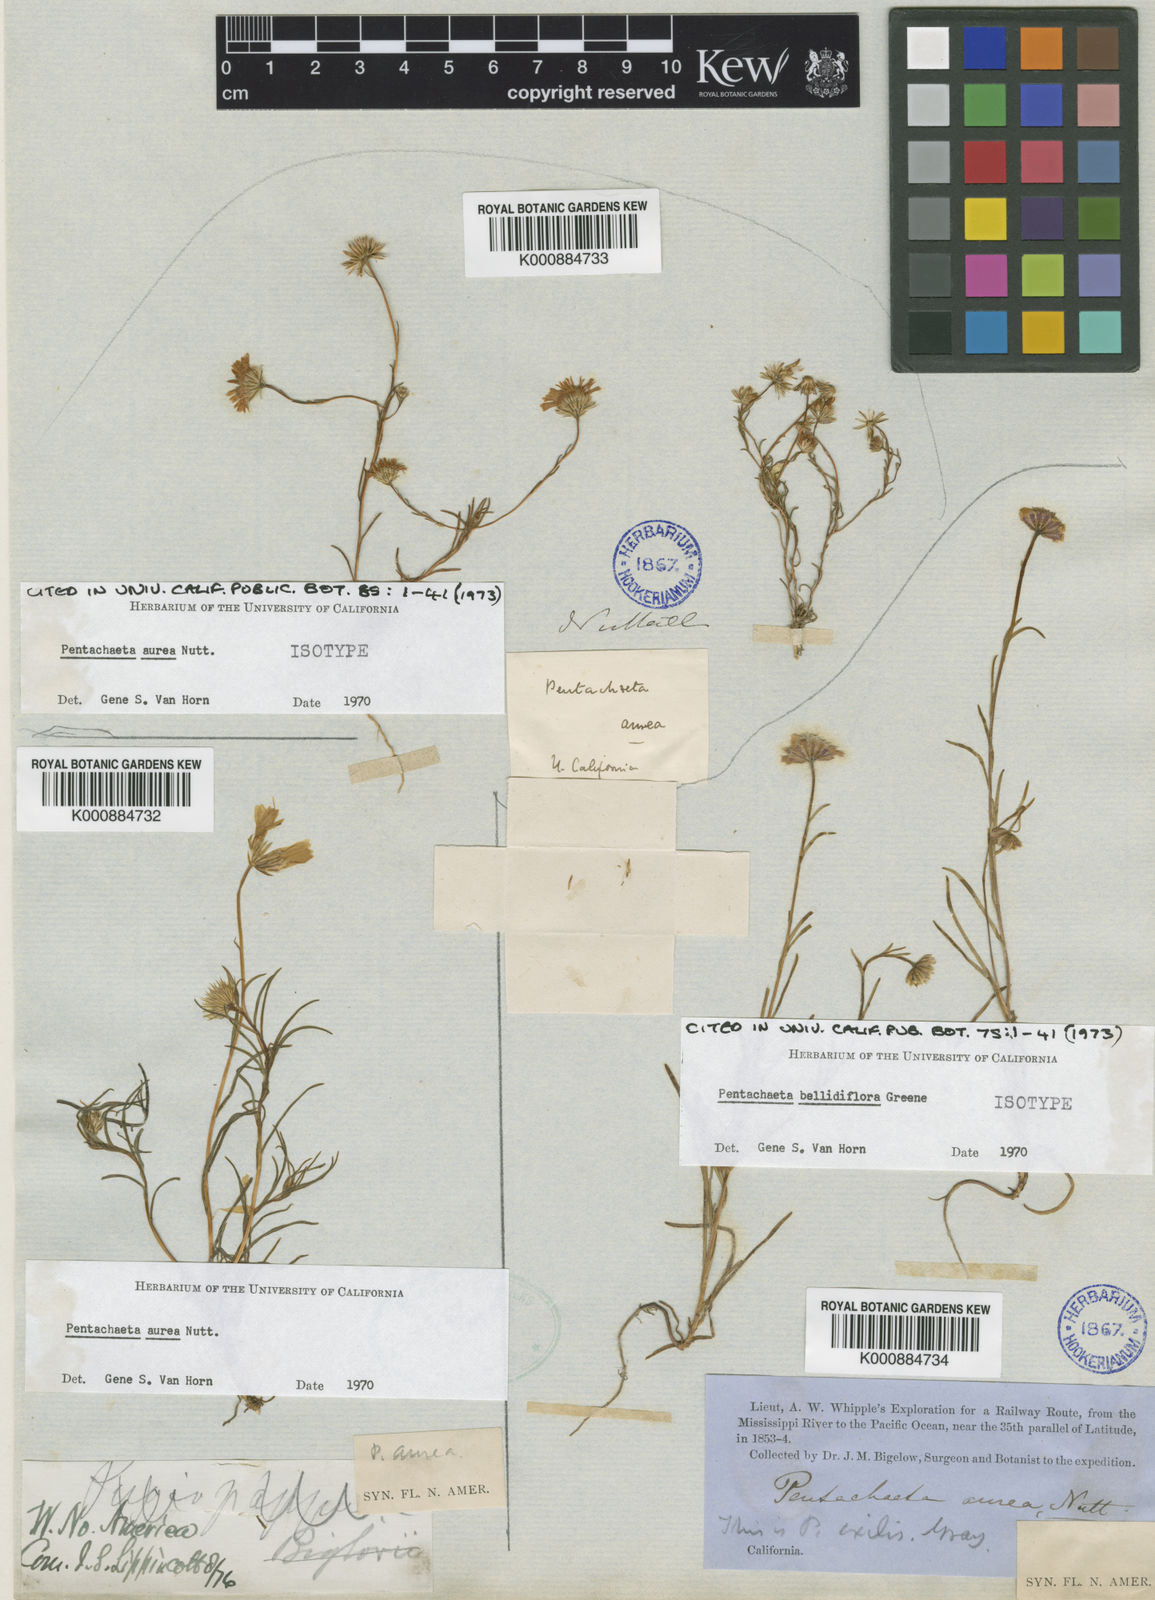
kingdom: Plantae
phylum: Tracheophyta
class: Magnoliopsida
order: Asterales
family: Asteraceae
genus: Pentachaeta
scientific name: Pentachaeta
